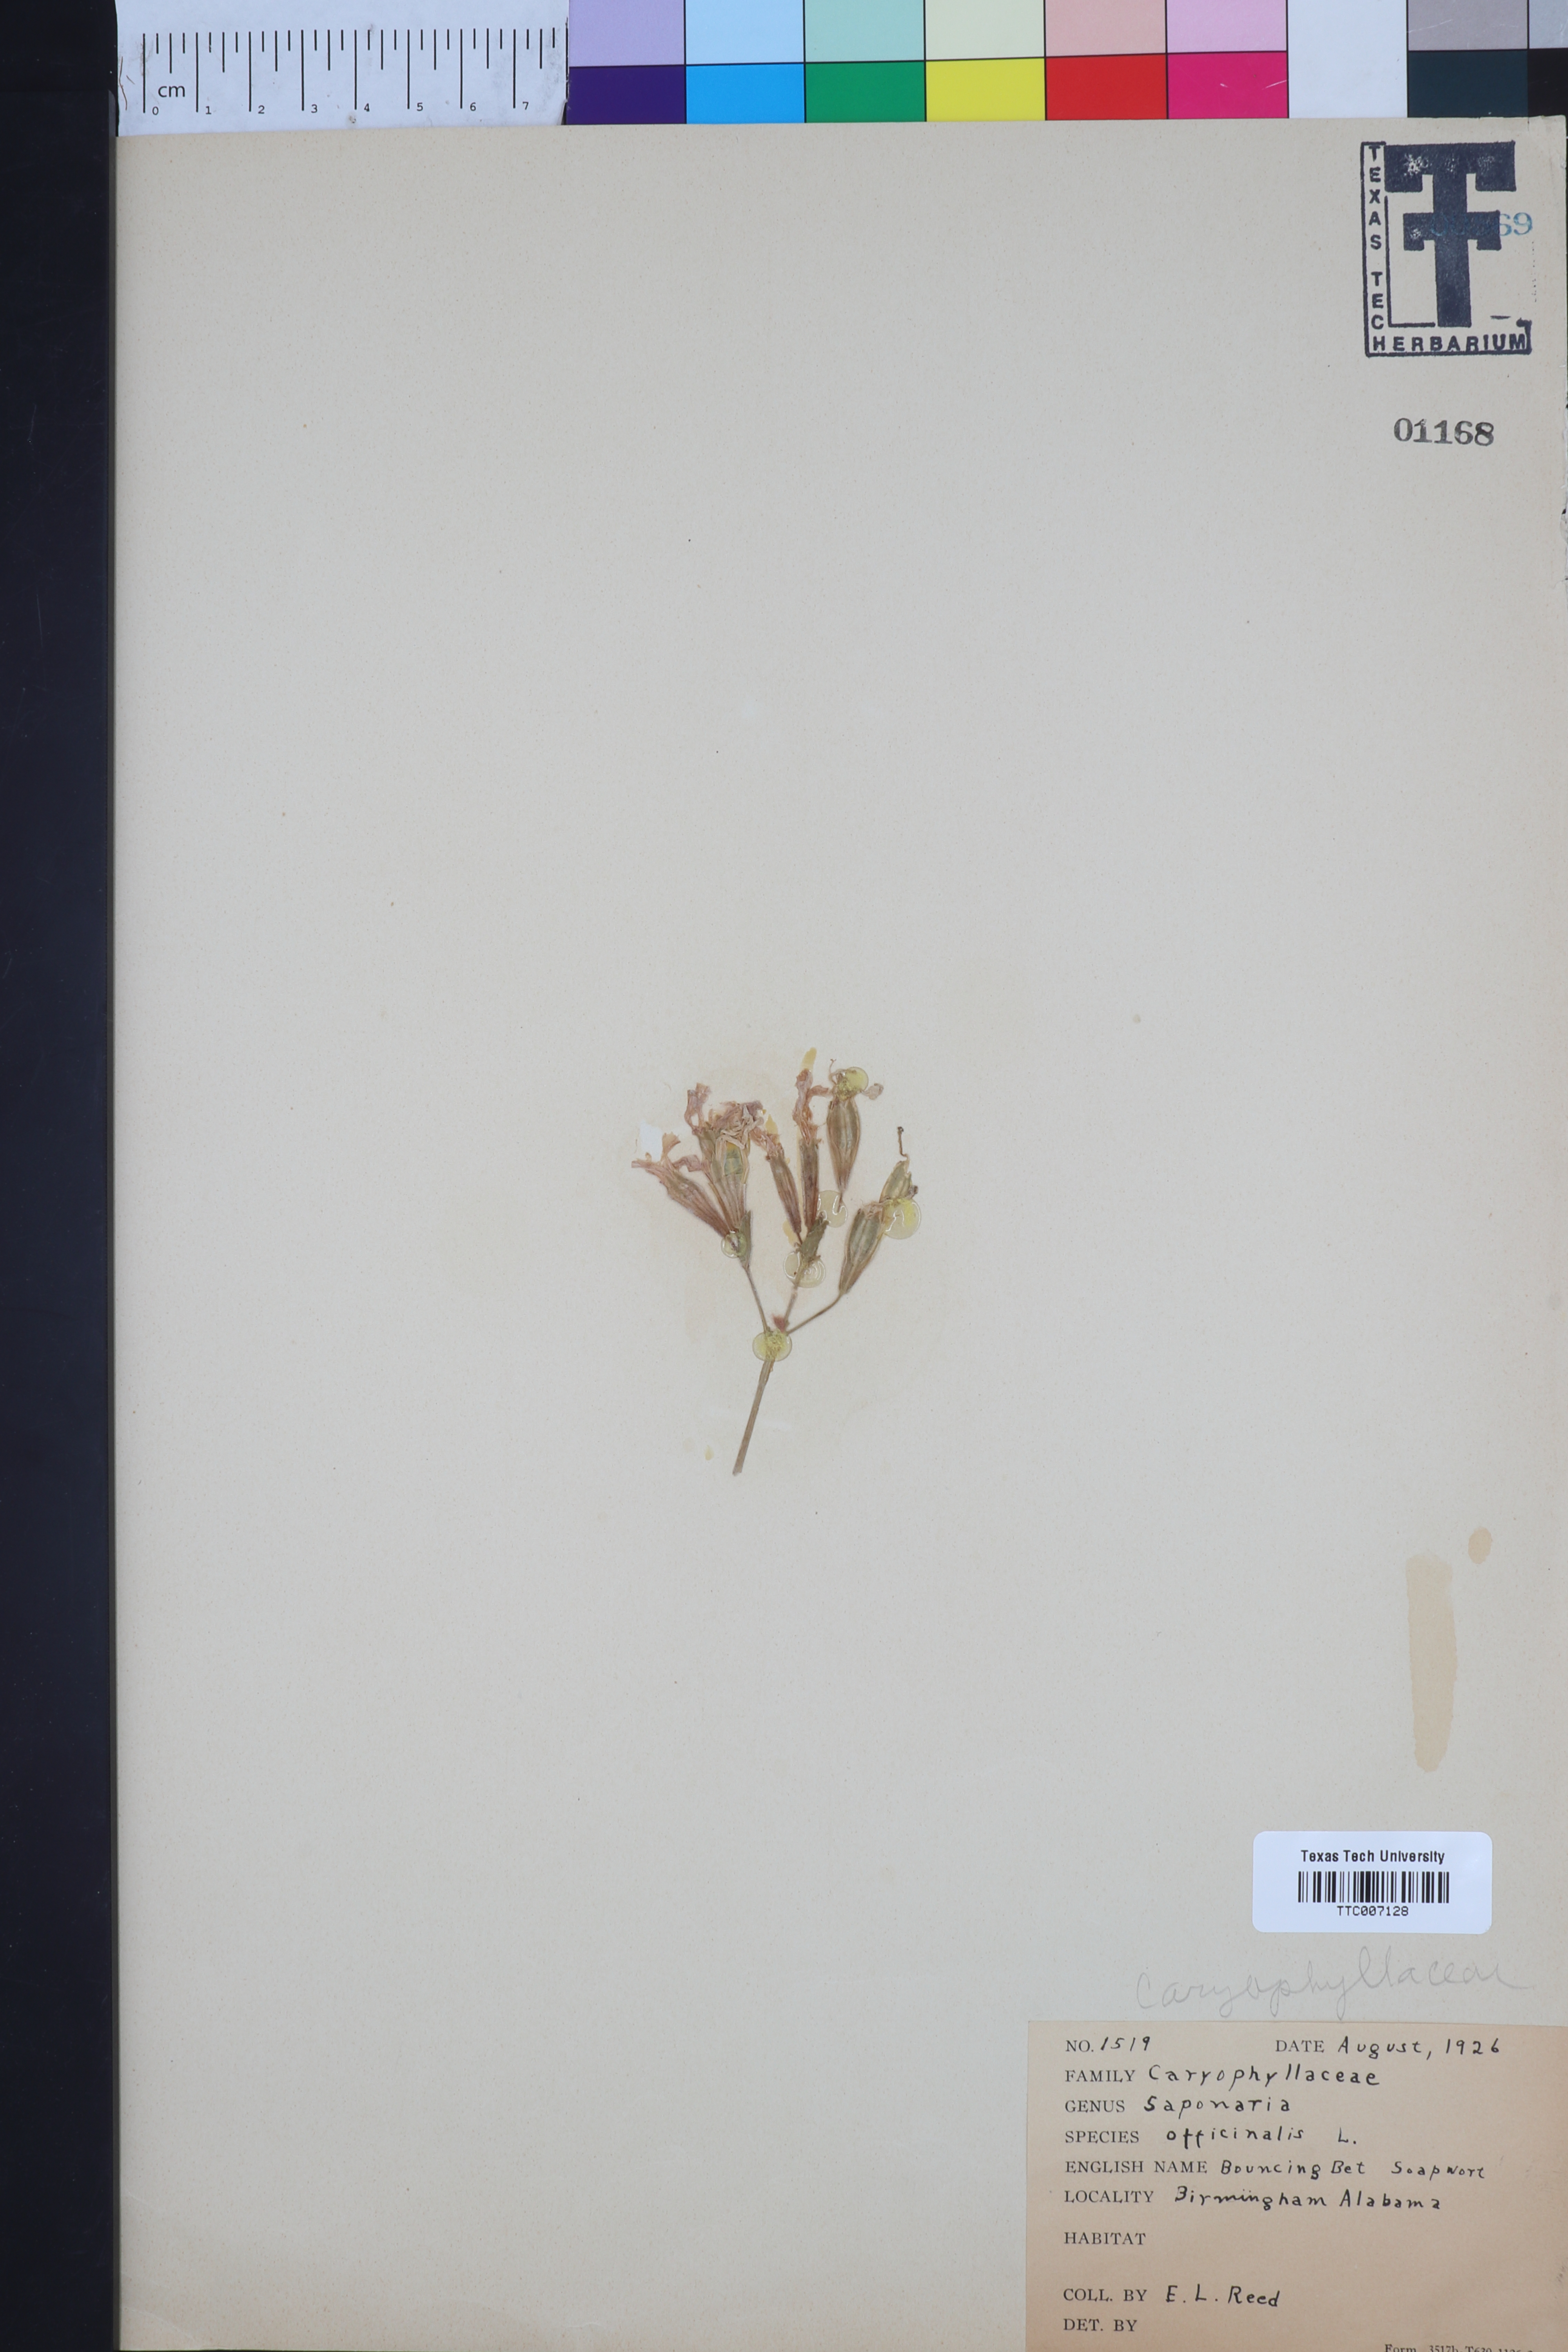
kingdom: Plantae
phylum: Tracheophyta
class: Magnoliopsida
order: Caryophyllales
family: Caryophyllaceae
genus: Saponaria
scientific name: Saponaria officinalis
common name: Soapwort
